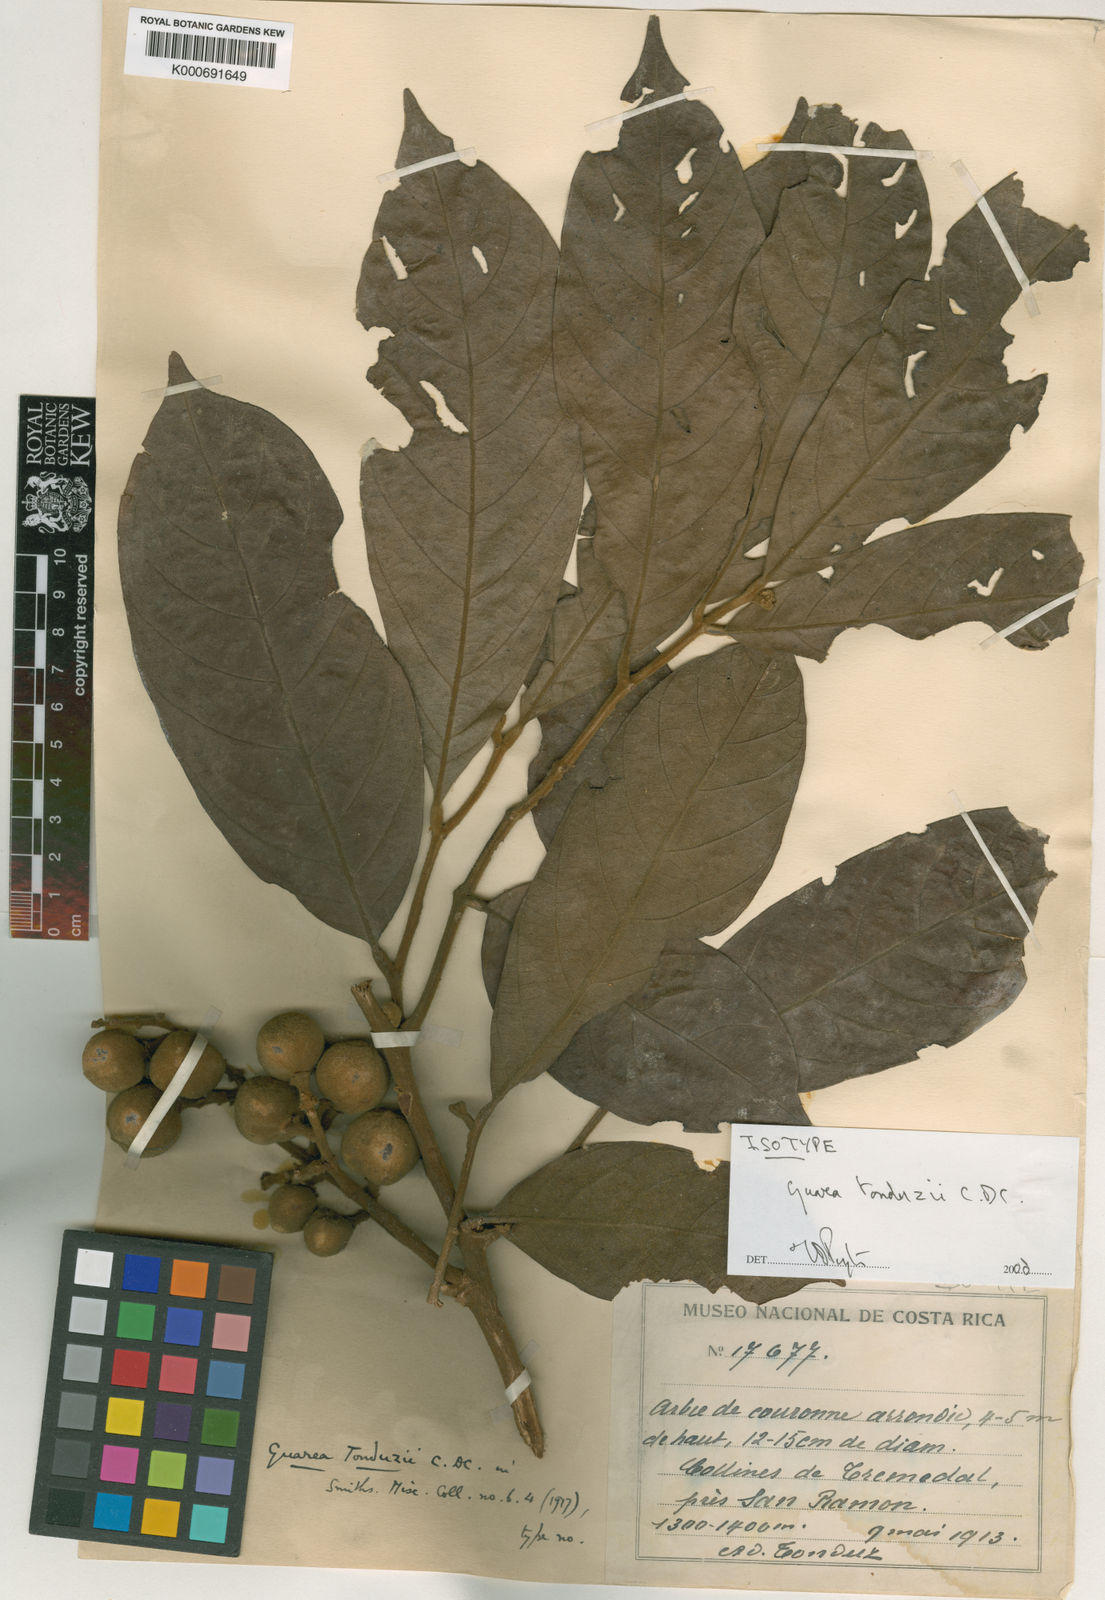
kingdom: Plantae
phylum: Tracheophyta
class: Magnoliopsida
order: Sapindales
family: Meliaceae
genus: Guarea
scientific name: Guarea tonduzii
